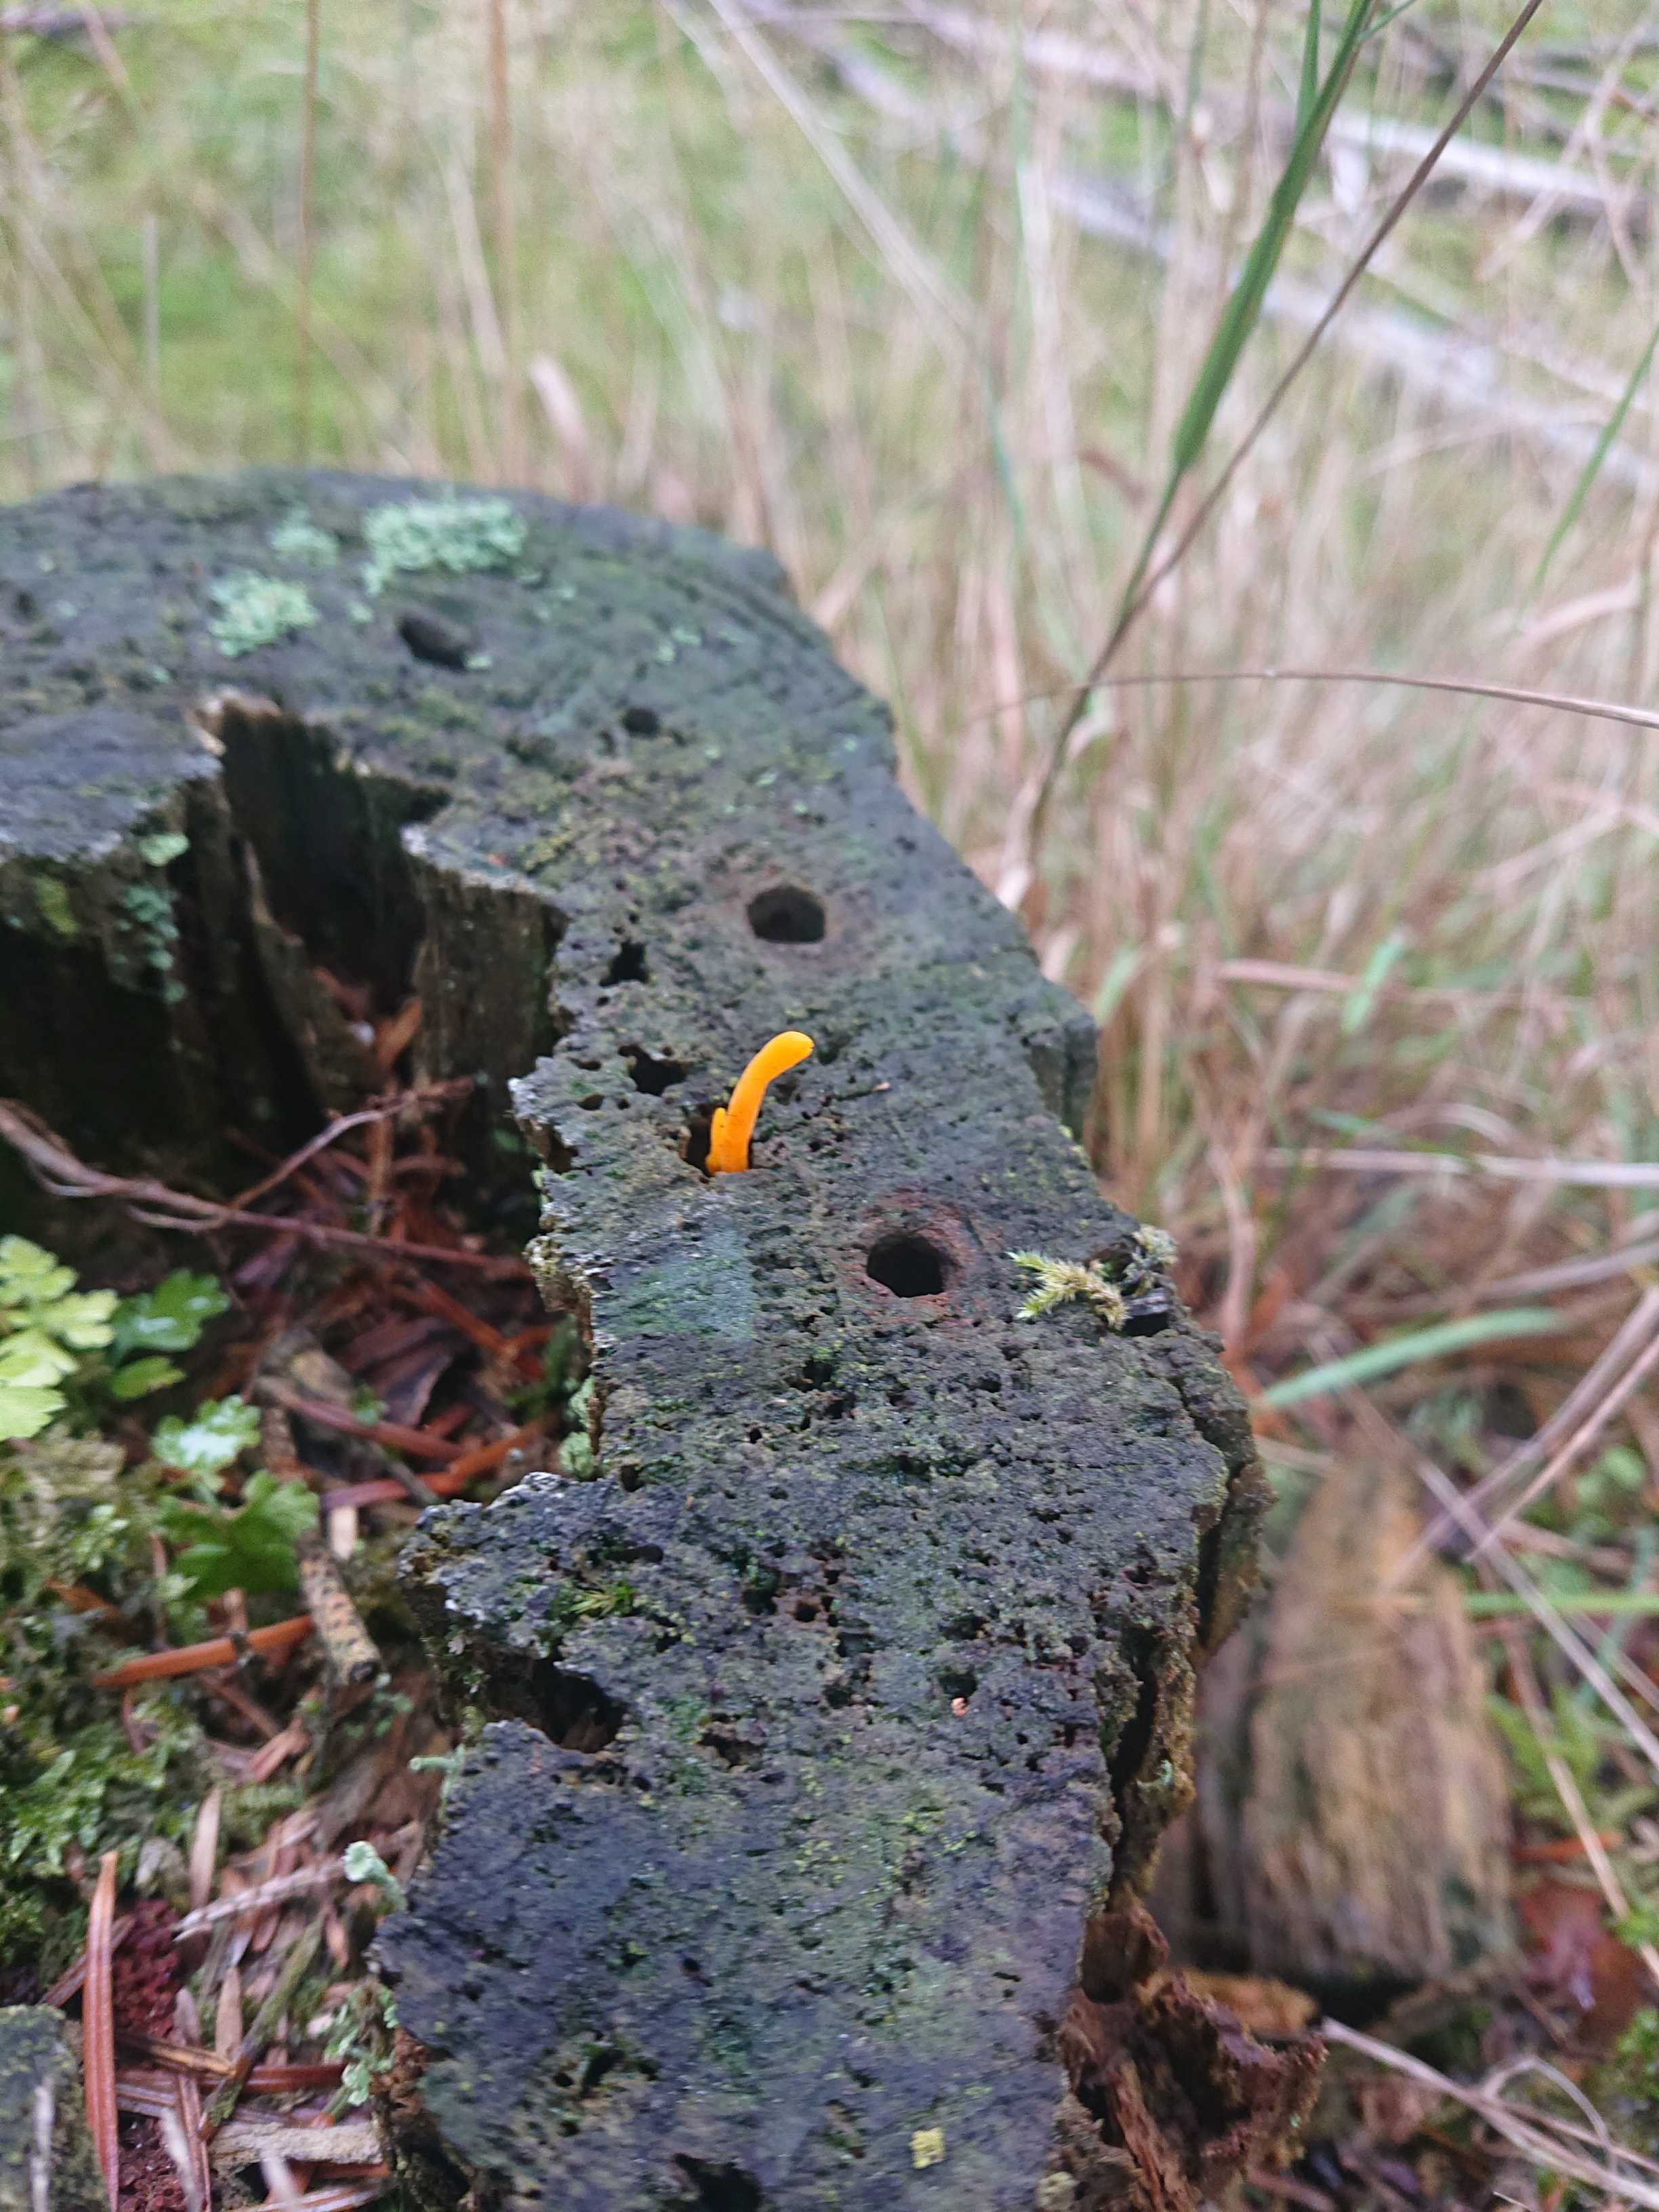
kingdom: Fungi
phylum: Basidiomycota
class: Dacrymycetes
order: Dacrymycetales
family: Dacrymycetaceae
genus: Calocera
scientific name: Calocera
